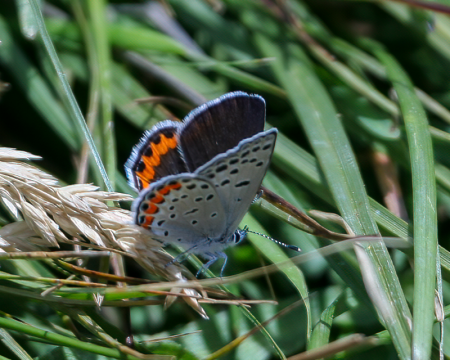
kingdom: Animalia
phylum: Arthropoda
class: Insecta
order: Lepidoptera
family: Lycaenidae
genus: Plebejus
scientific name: Plebejus acmon
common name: Acmon Blue
